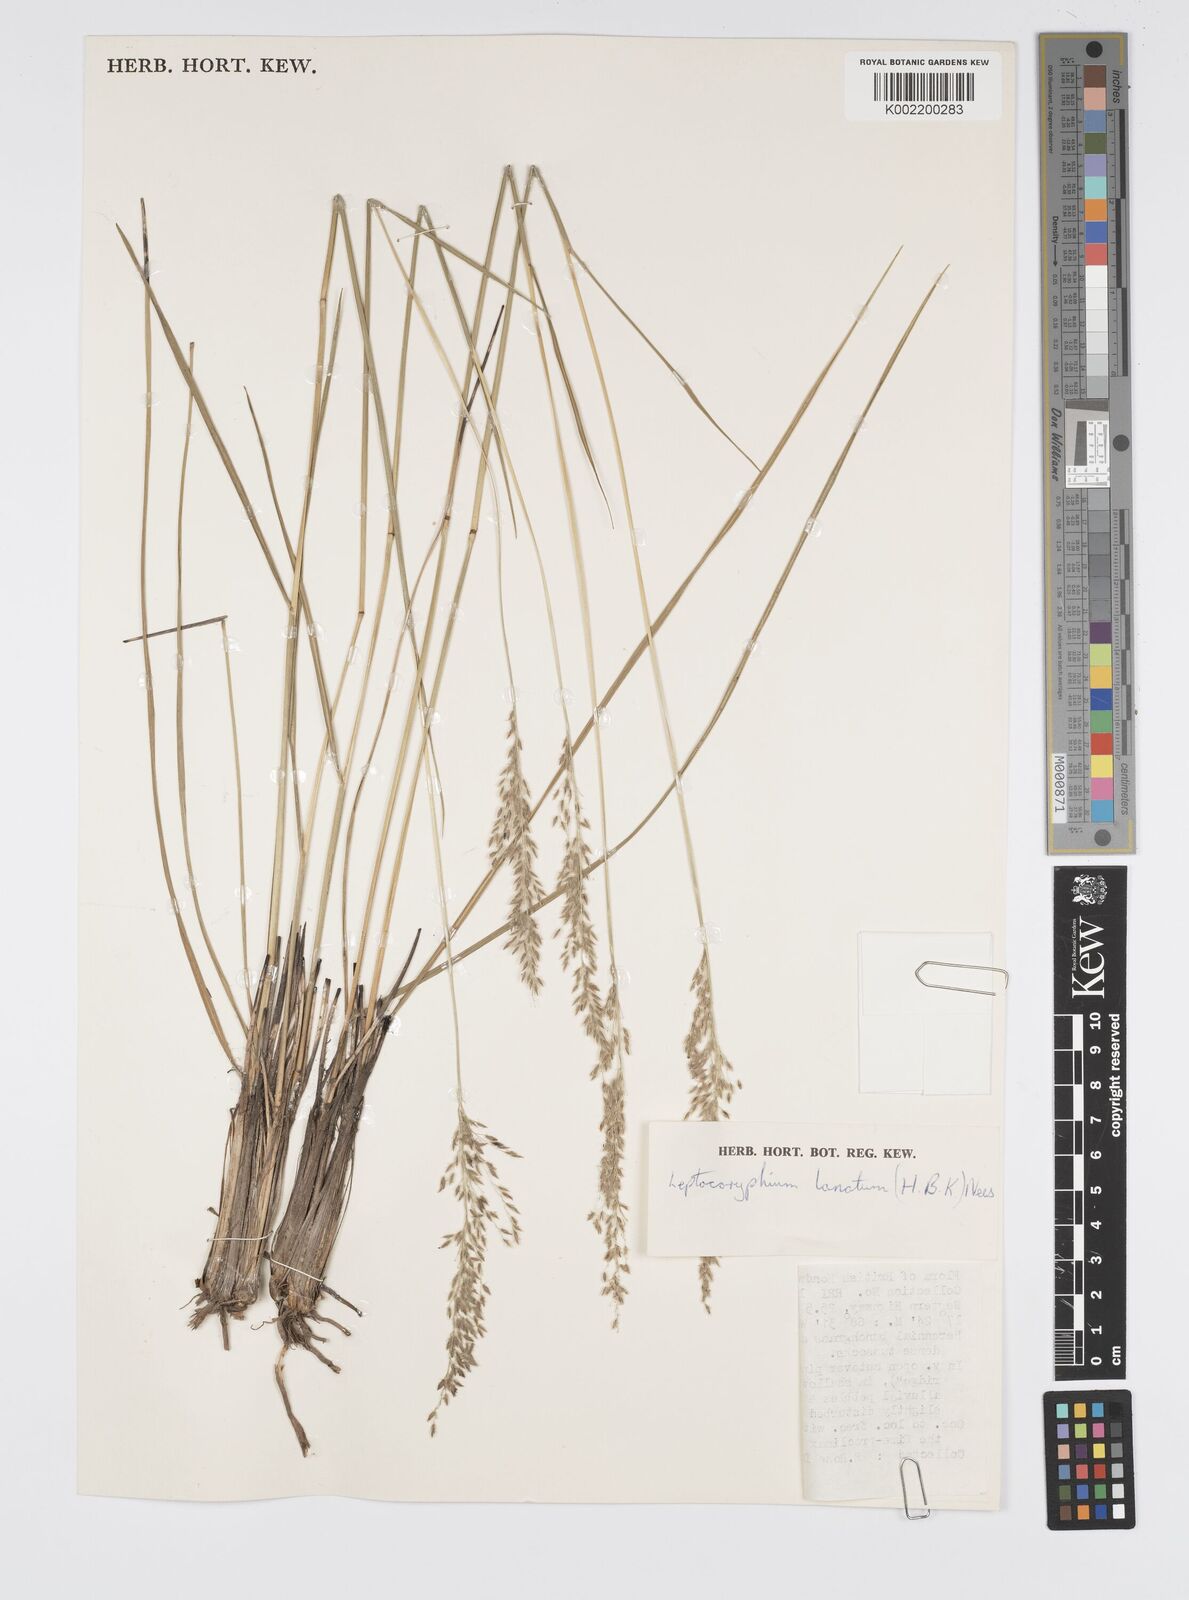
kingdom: Plantae
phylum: Tracheophyta
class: Liliopsida
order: Poales
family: Poaceae
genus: Anthenantia
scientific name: Anthenantia lanata
